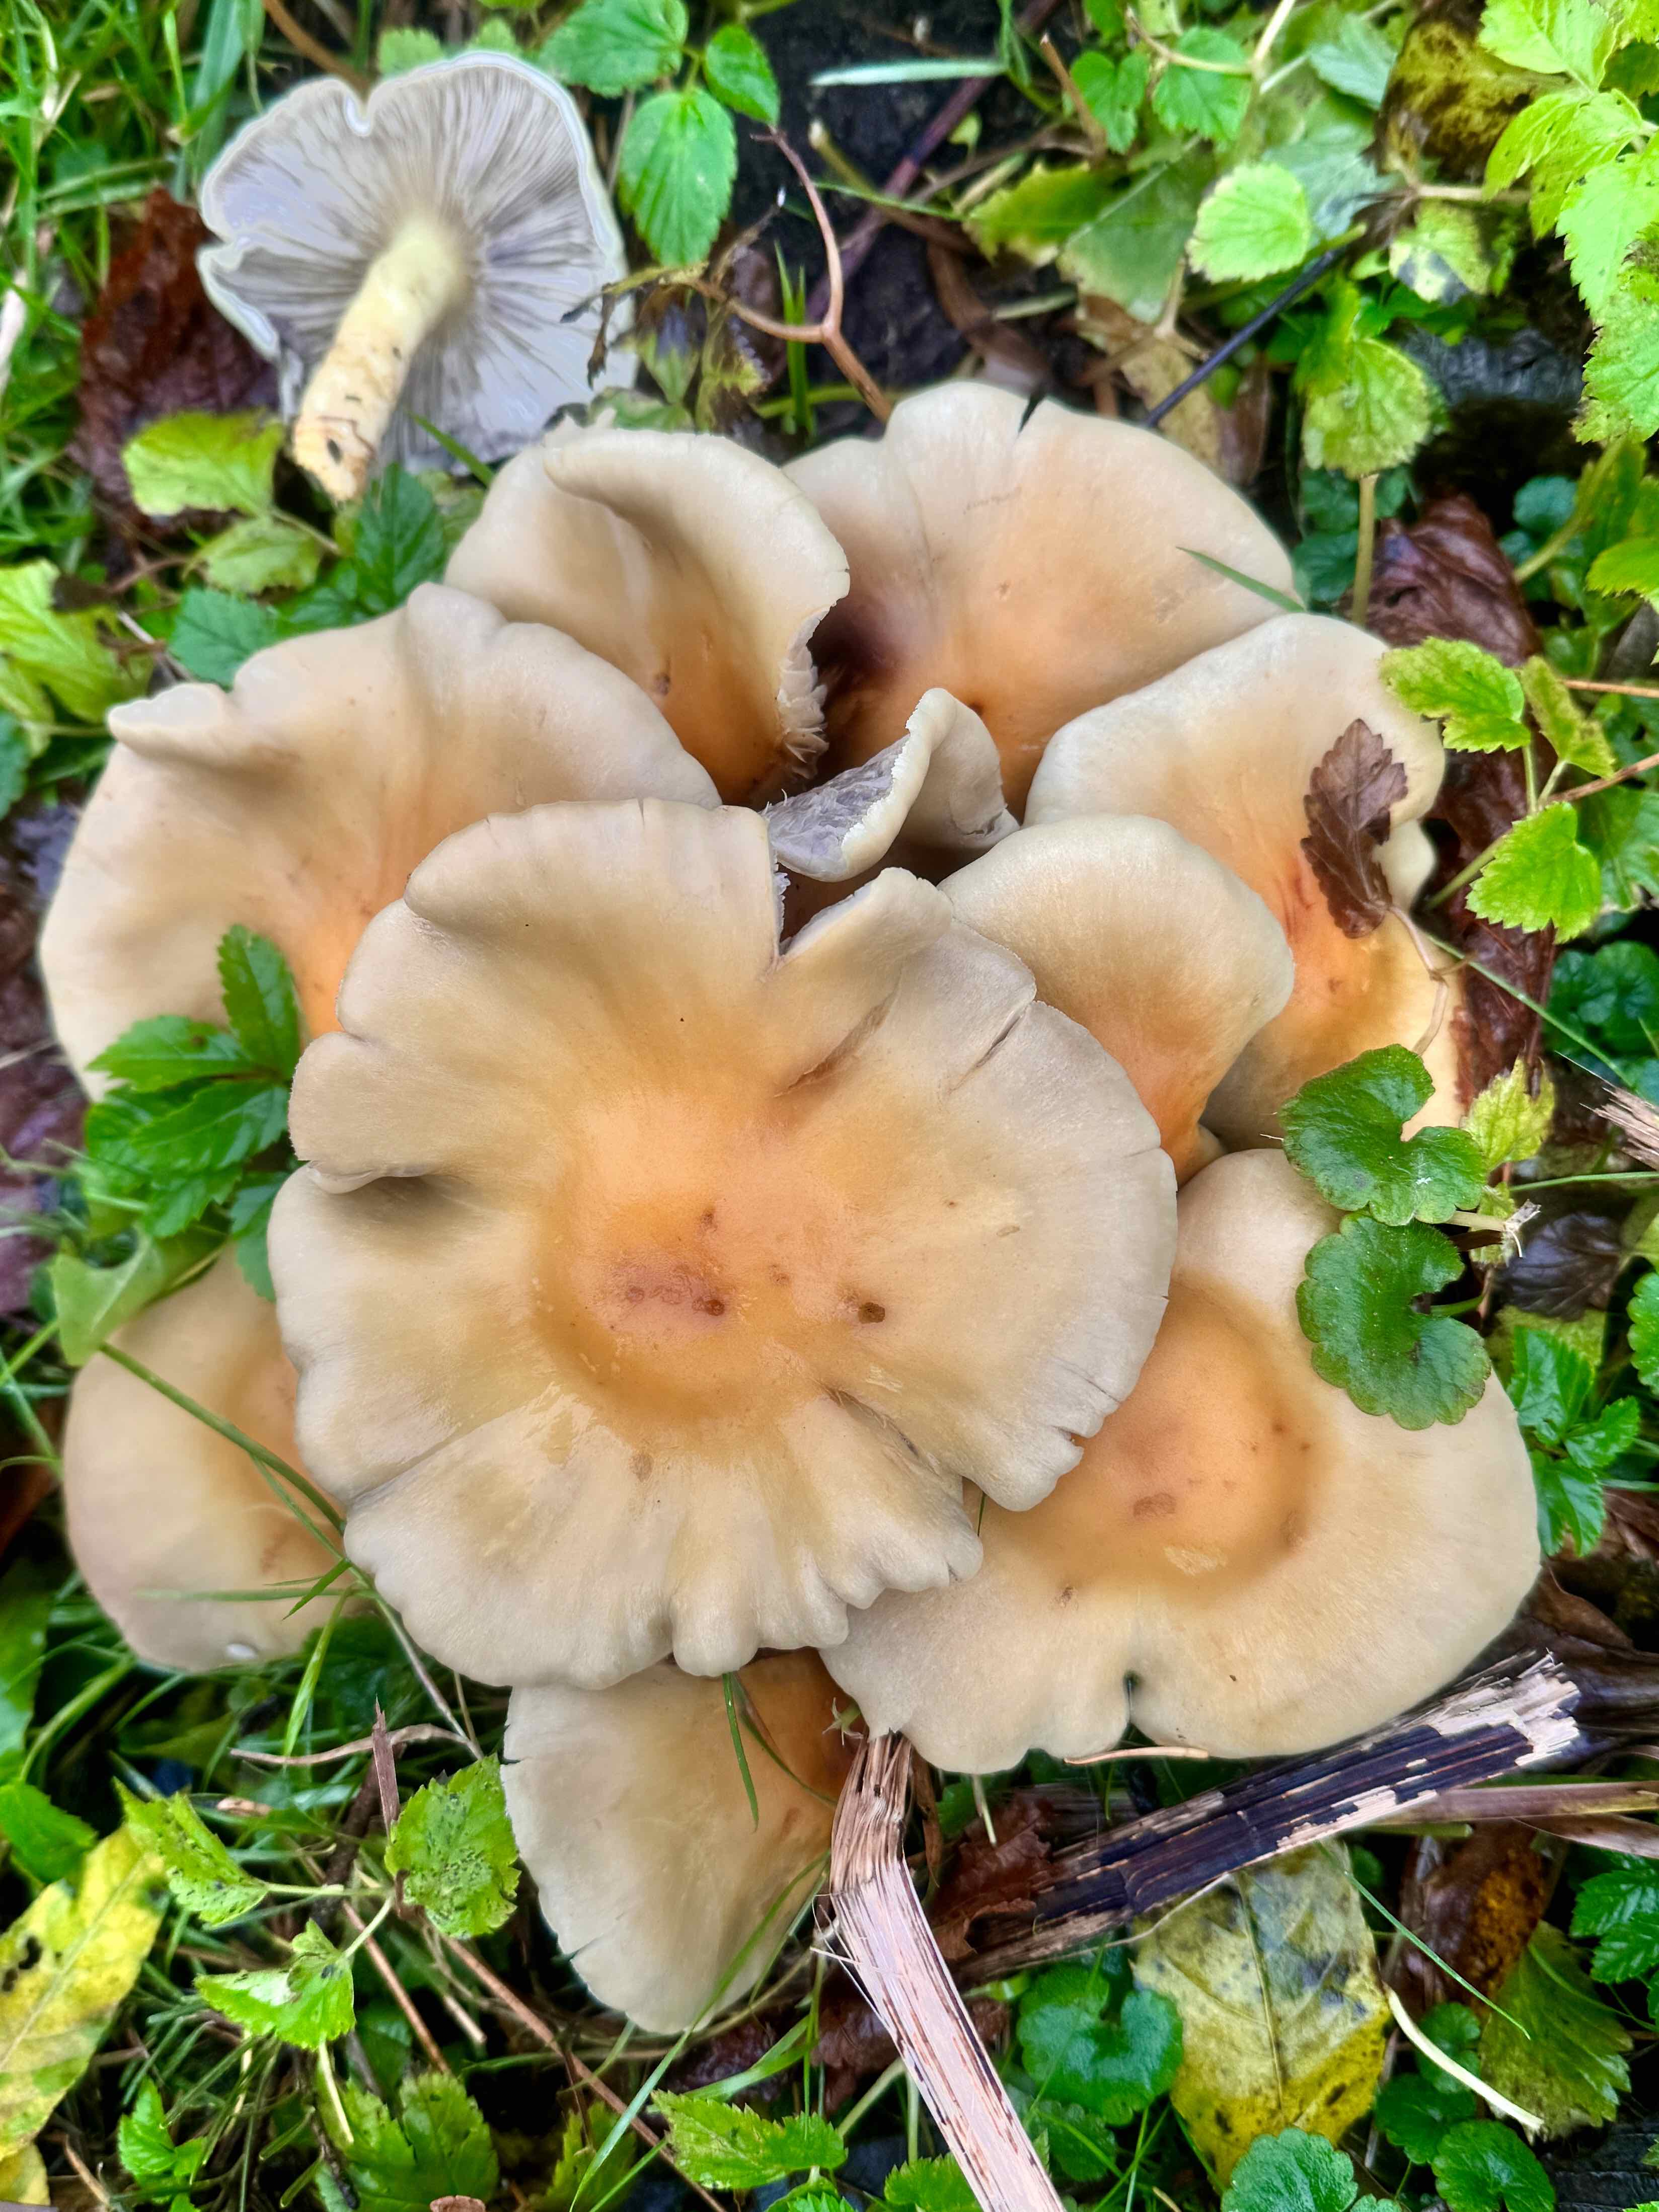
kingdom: Fungi
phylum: Basidiomycota
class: Agaricomycetes
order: Agaricales
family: Strophariaceae
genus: Hypholoma
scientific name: Hypholoma fasciculare
